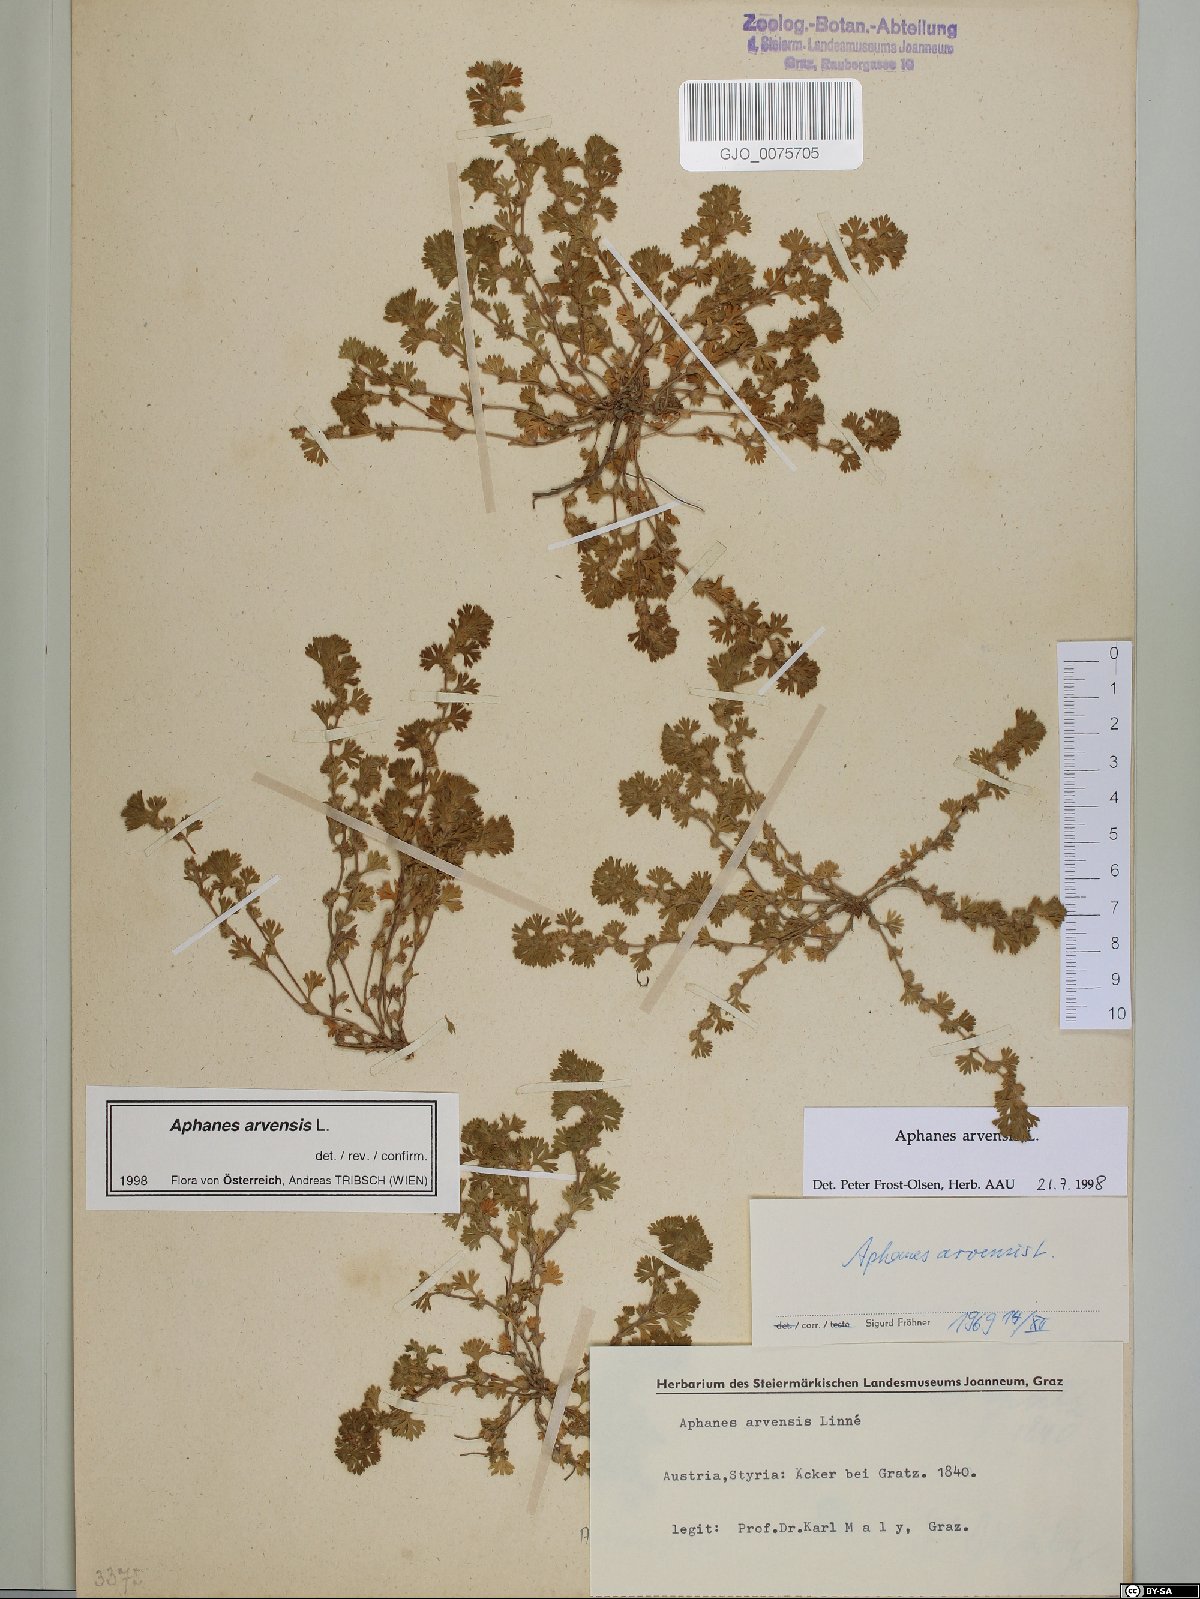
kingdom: Plantae
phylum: Tracheophyta
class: Magnoliopsida
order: Rosales
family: Rosaceae
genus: Aphanes
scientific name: Aphanes arvensis
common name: Parsley-piert
